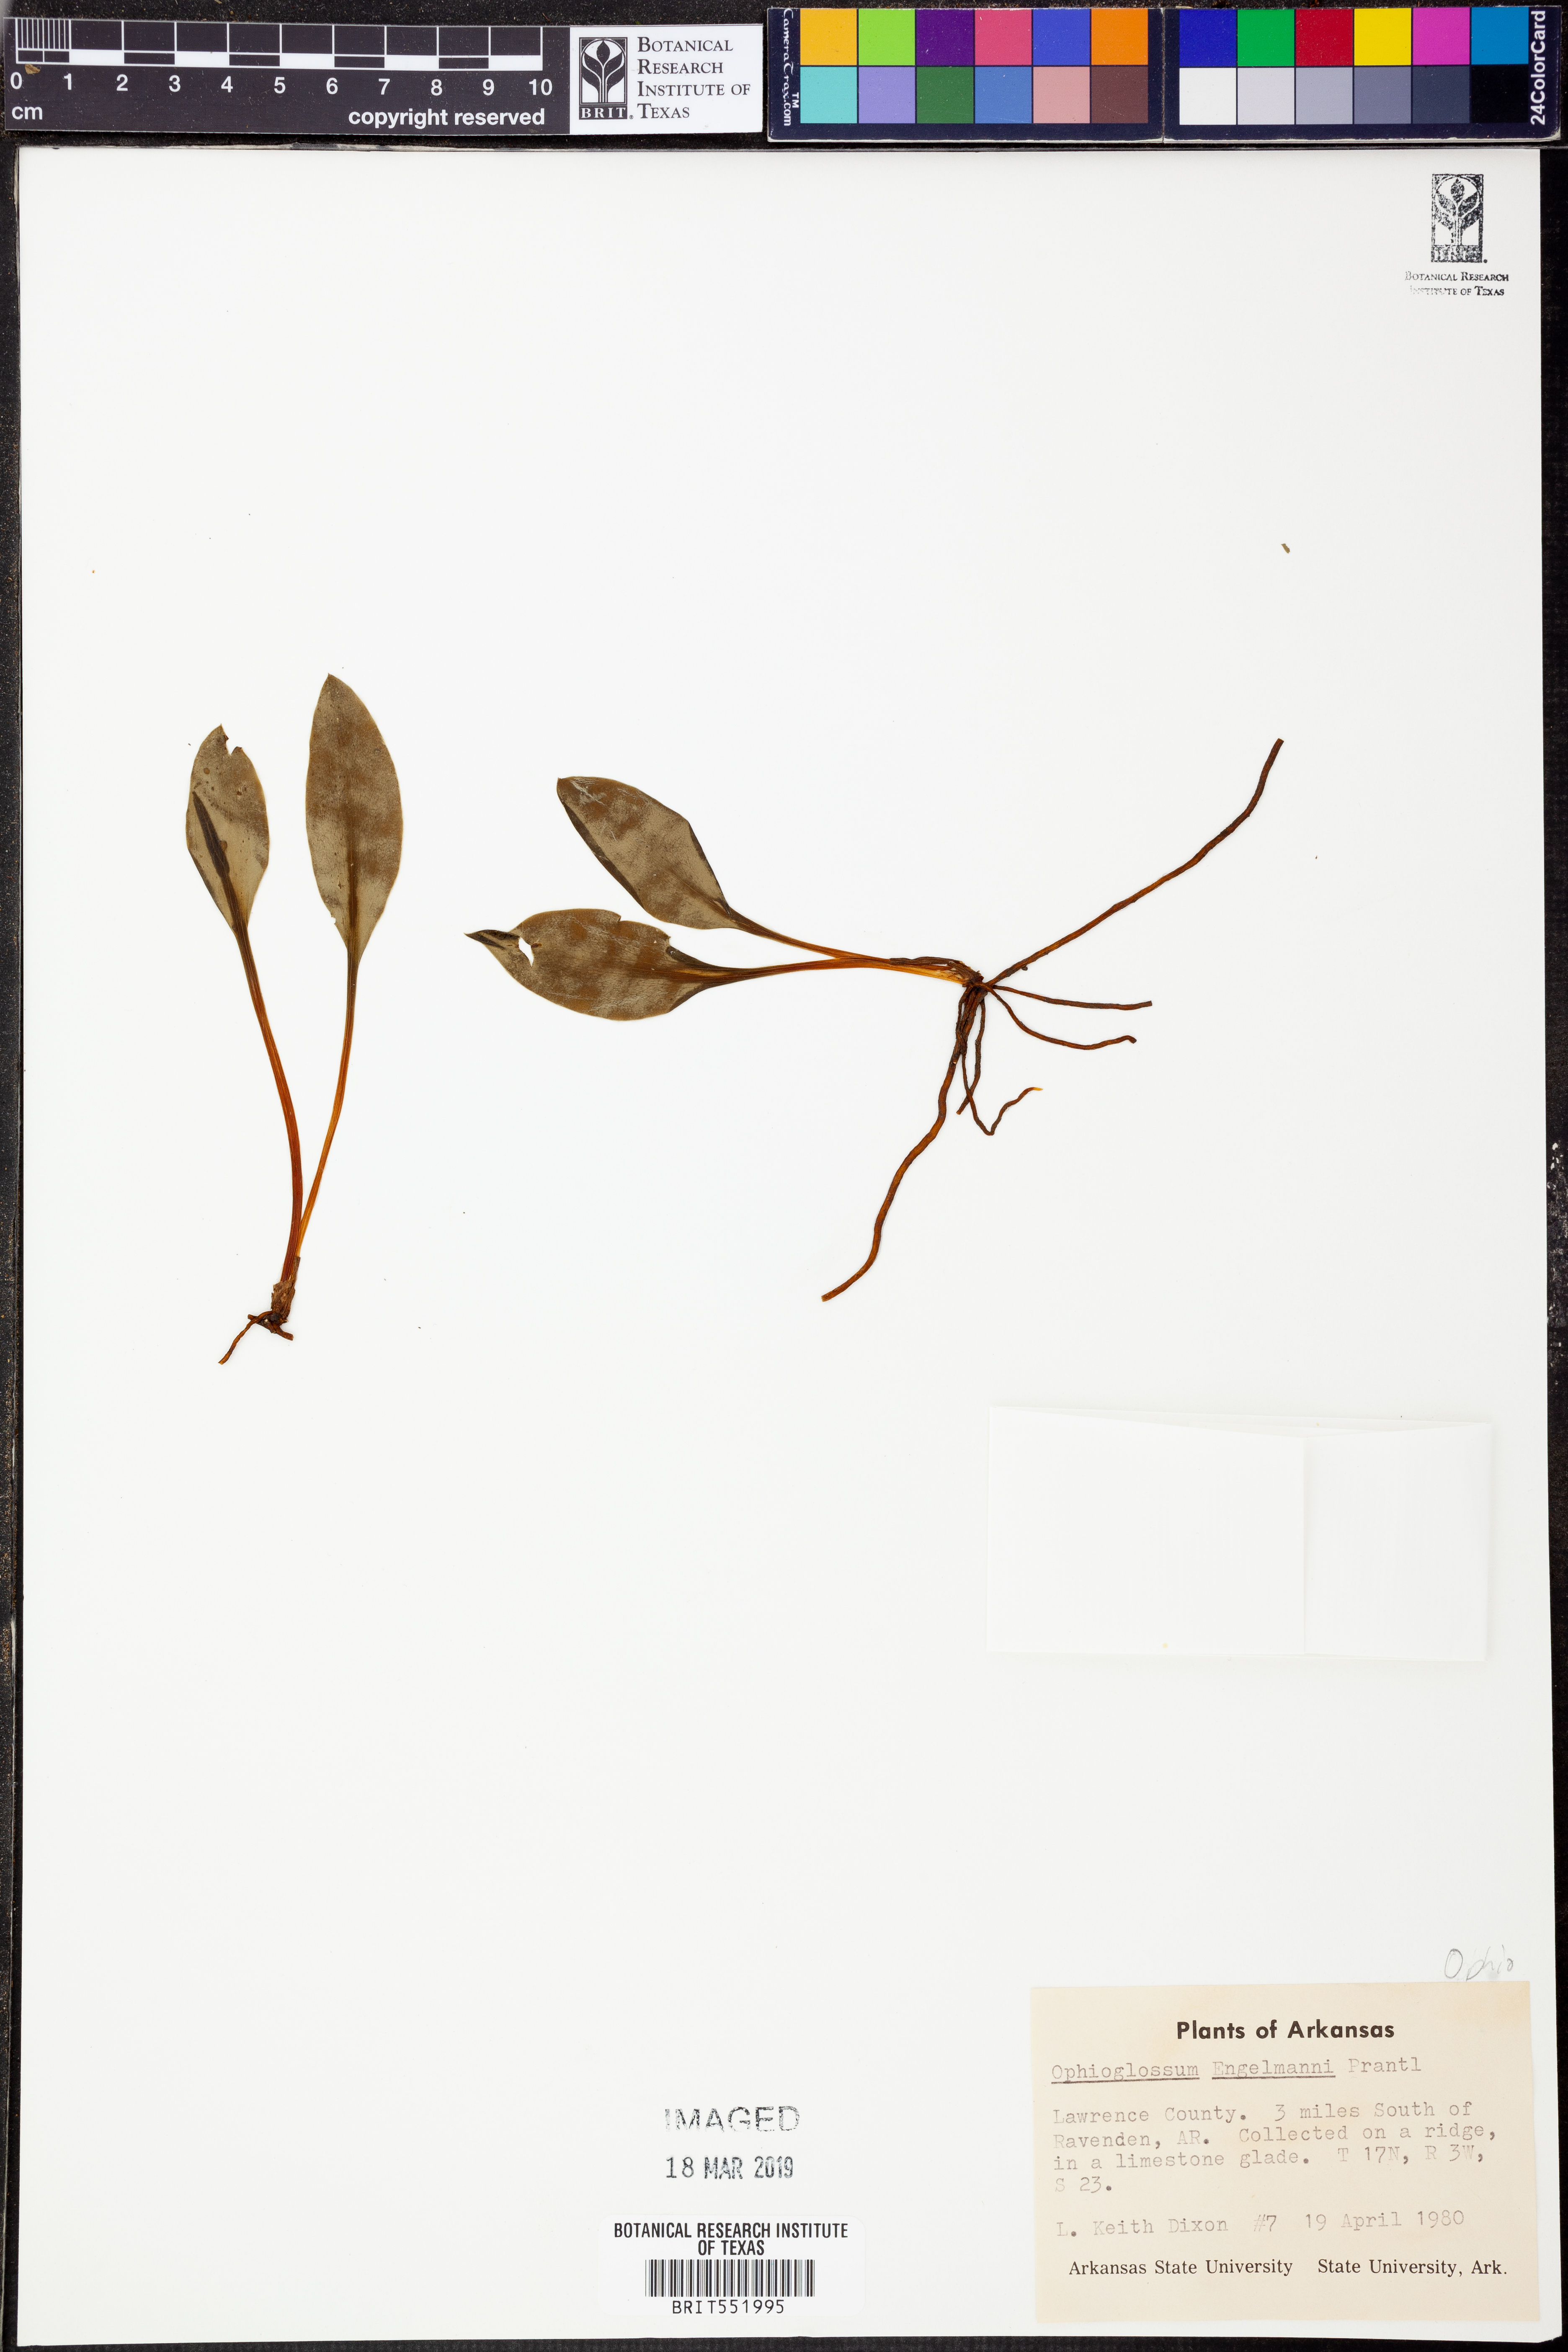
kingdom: Plantae
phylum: Tracheophyta
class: Polypodiopsida
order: Ophioglossales
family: Ophioglossaceae
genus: Ophioglossum
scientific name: Ophioglossum engelmannii
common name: Limestone adder's-tongue
